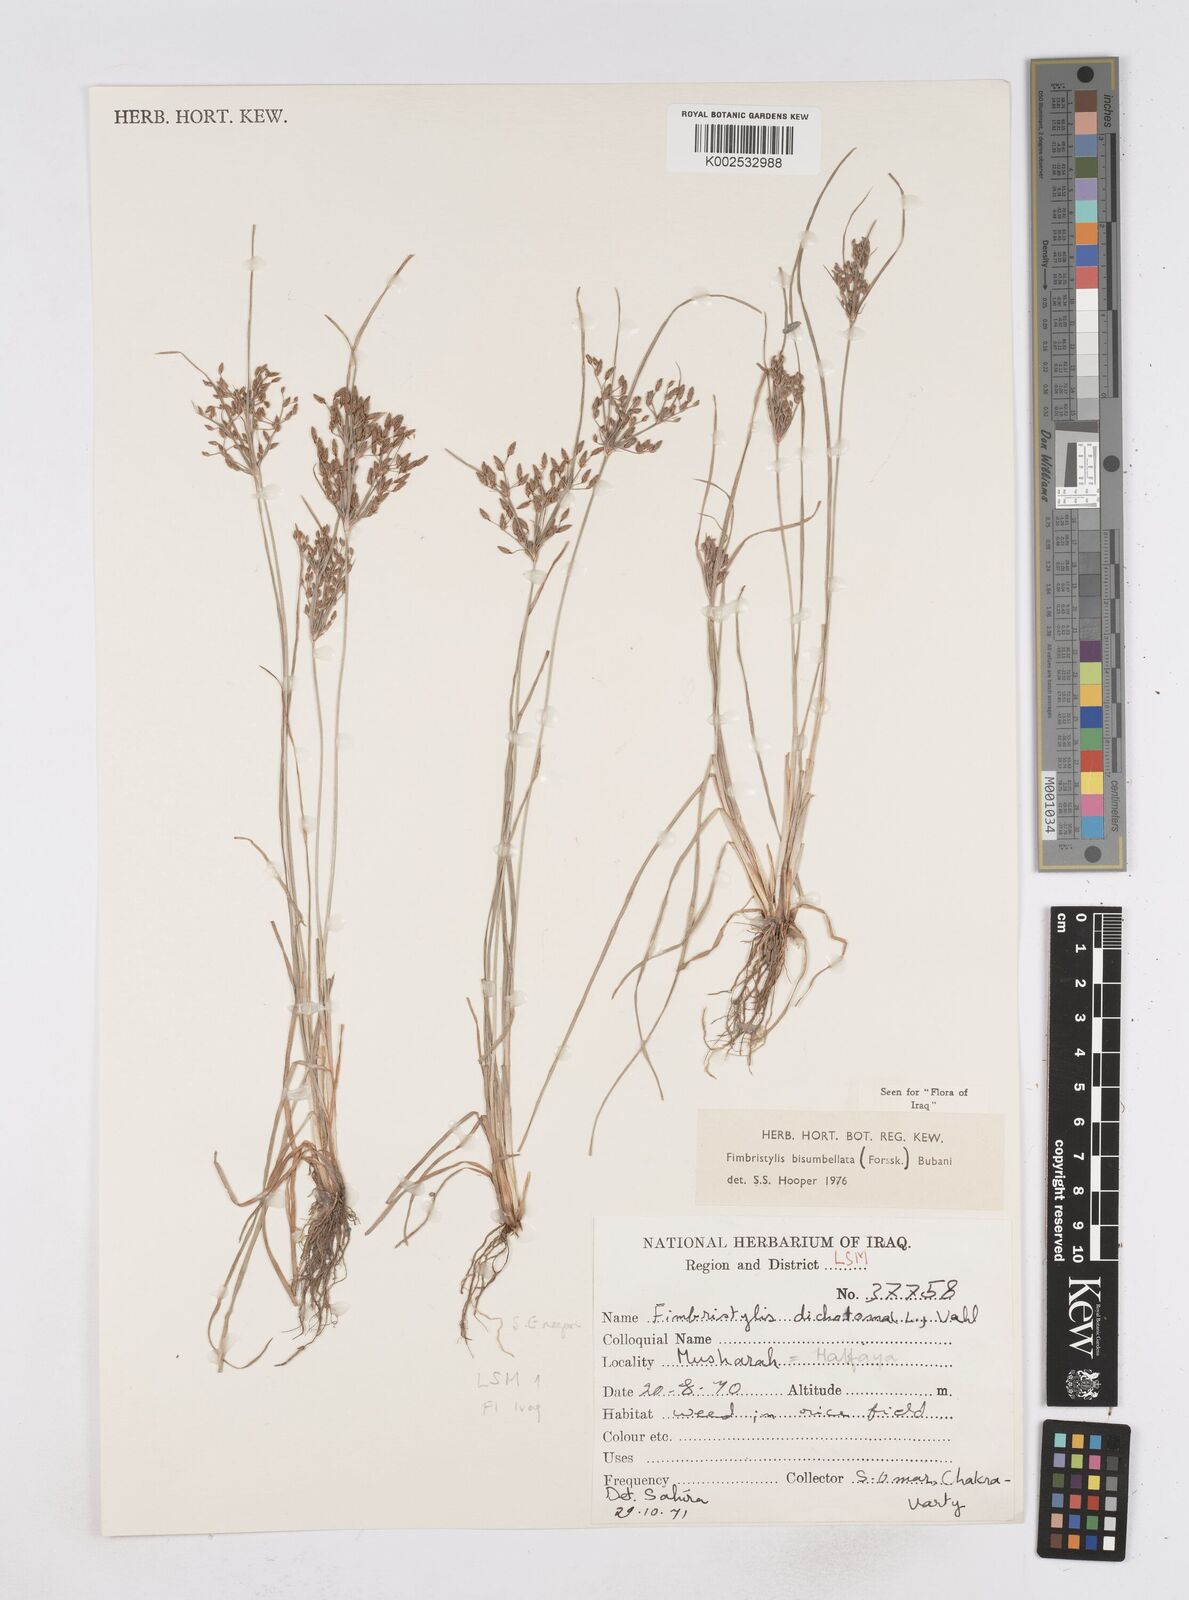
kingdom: Plantae
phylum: Tracheophyta
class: Liliopsida
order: Poales
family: Cyperaceae
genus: Fimbristylis
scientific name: Fimbristylis bisumbellata
